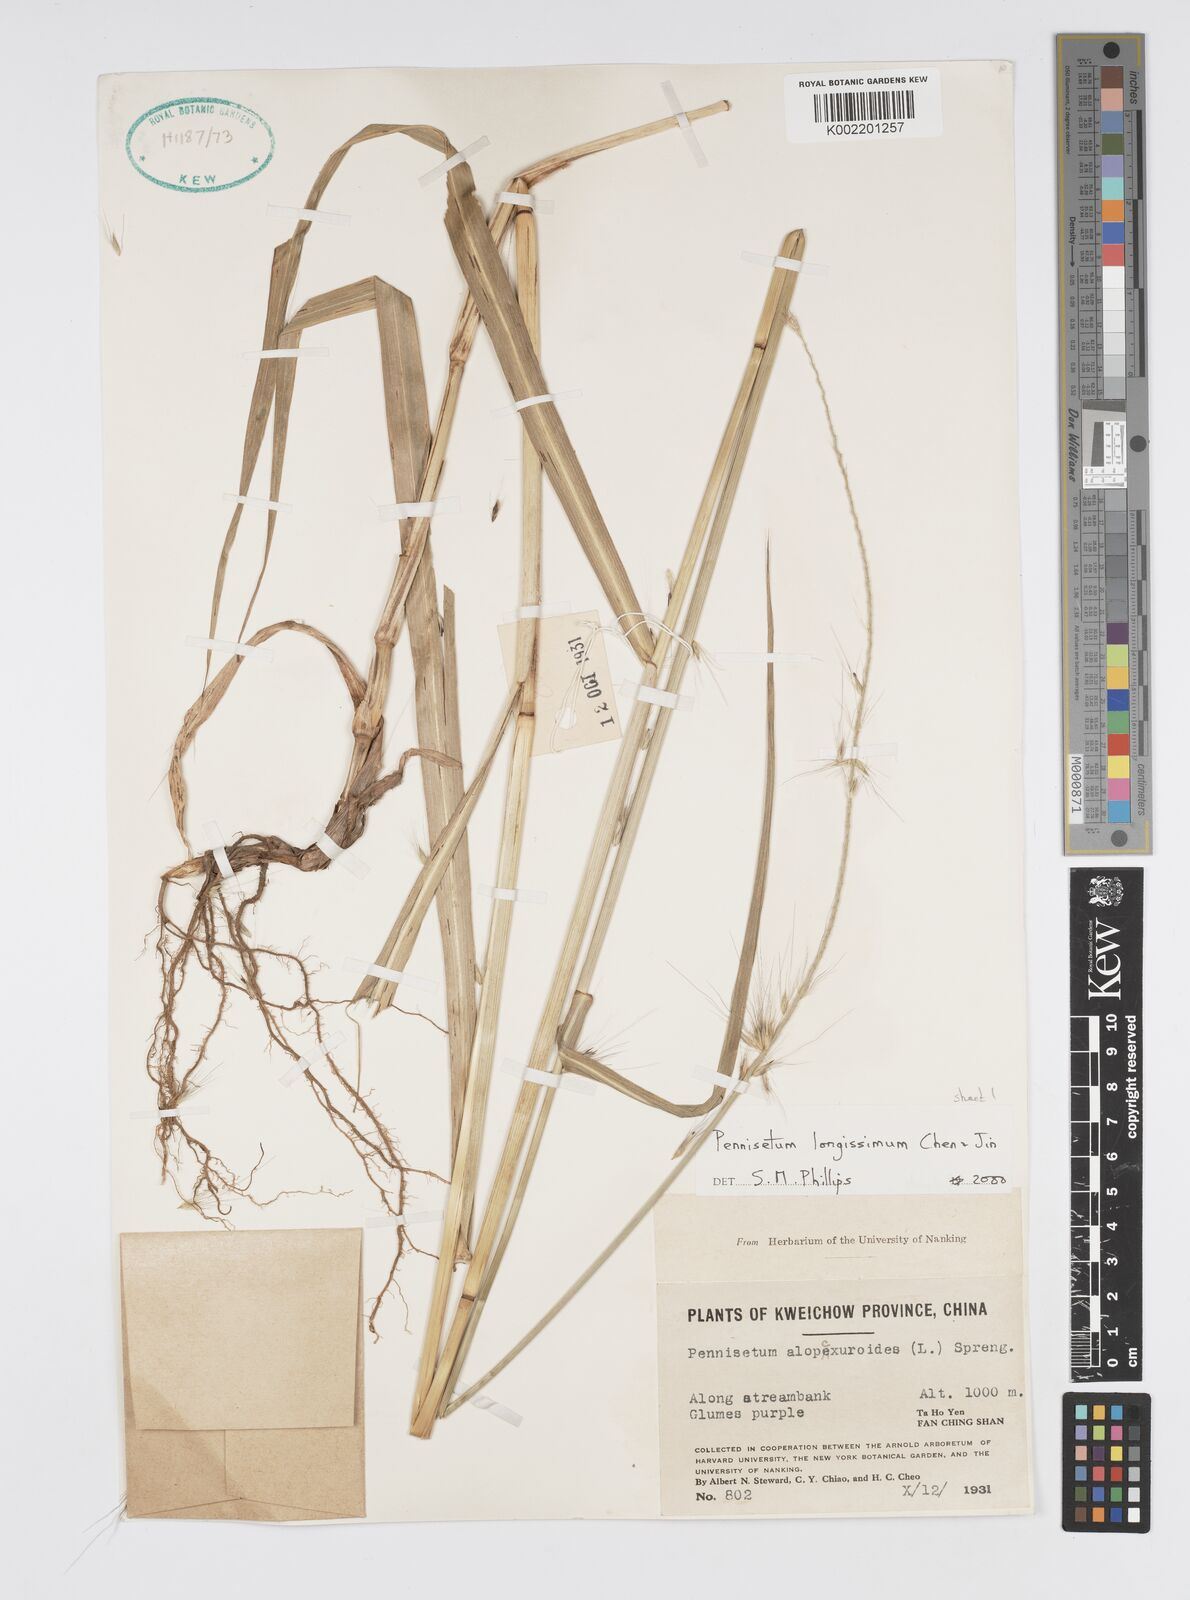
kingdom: Plantae
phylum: Tracheophyta
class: Liliopsida
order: Poales
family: Poaceae
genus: Cenchrus
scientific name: Cenchrus longissimus
